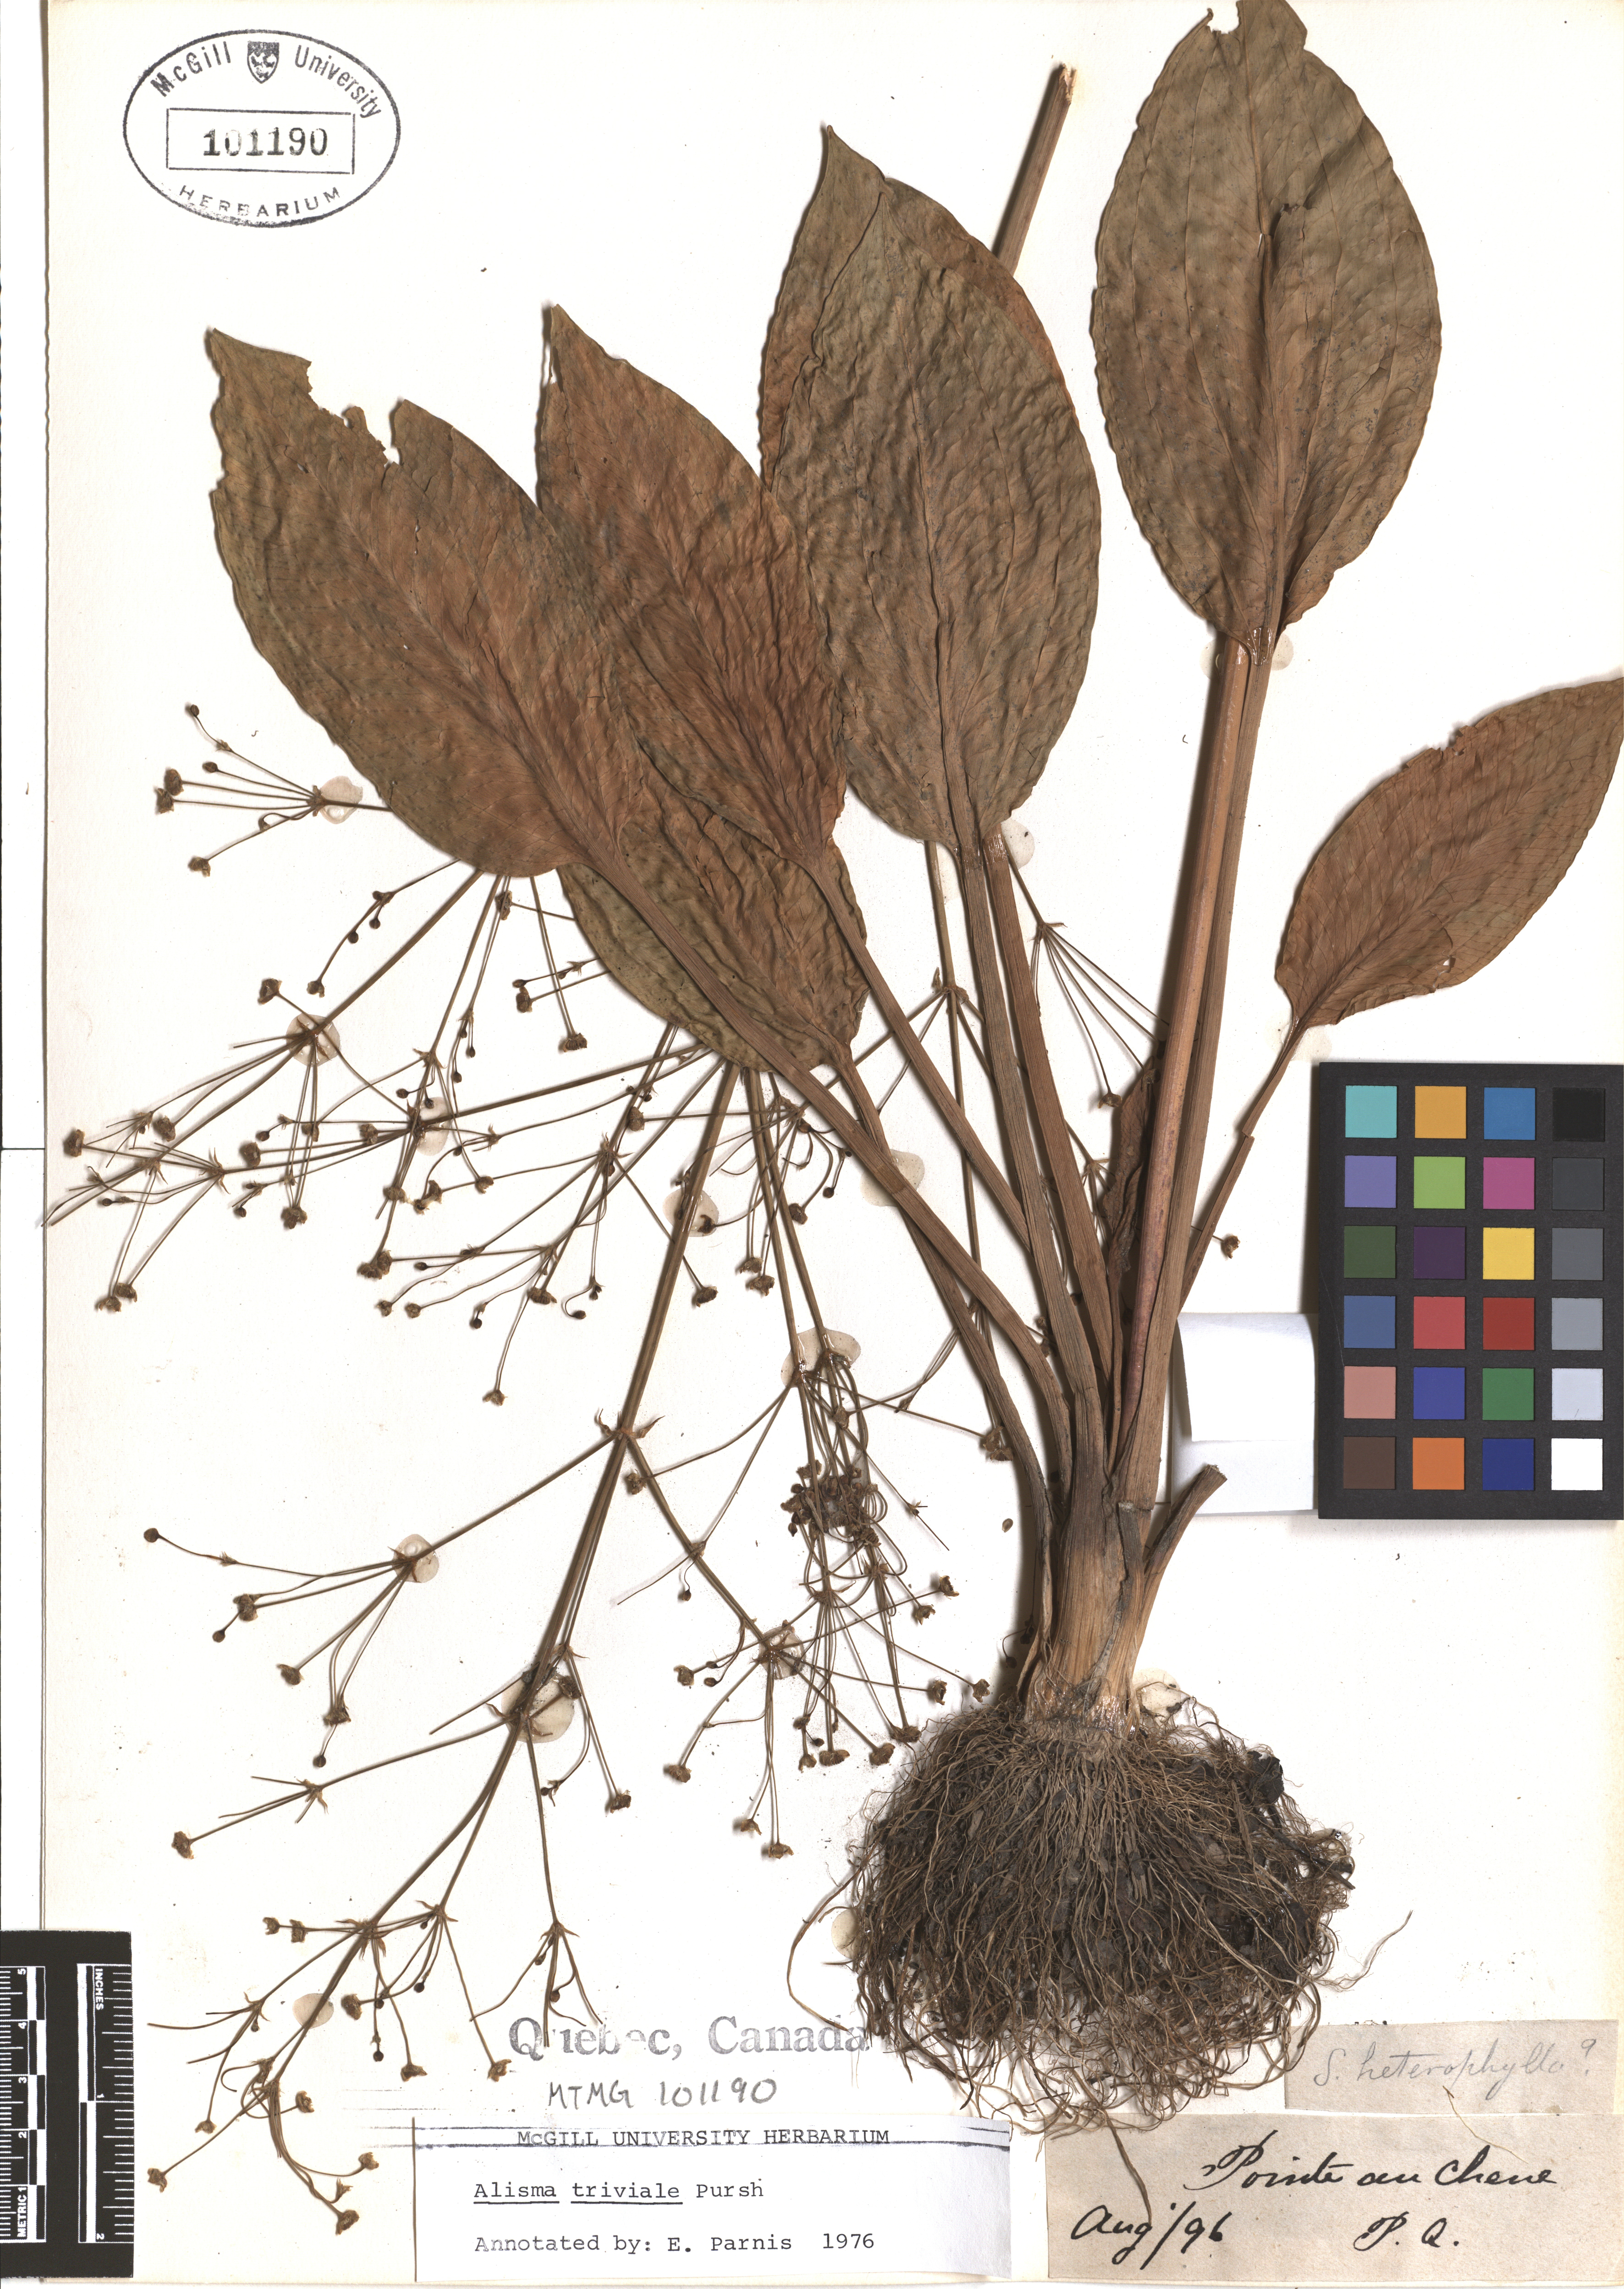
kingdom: Plantae
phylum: Tracheophyta
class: Liliopsida
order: Alismatales
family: Alismataceae
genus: Alisma
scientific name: Alisma triviale
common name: Northern water-plantain
